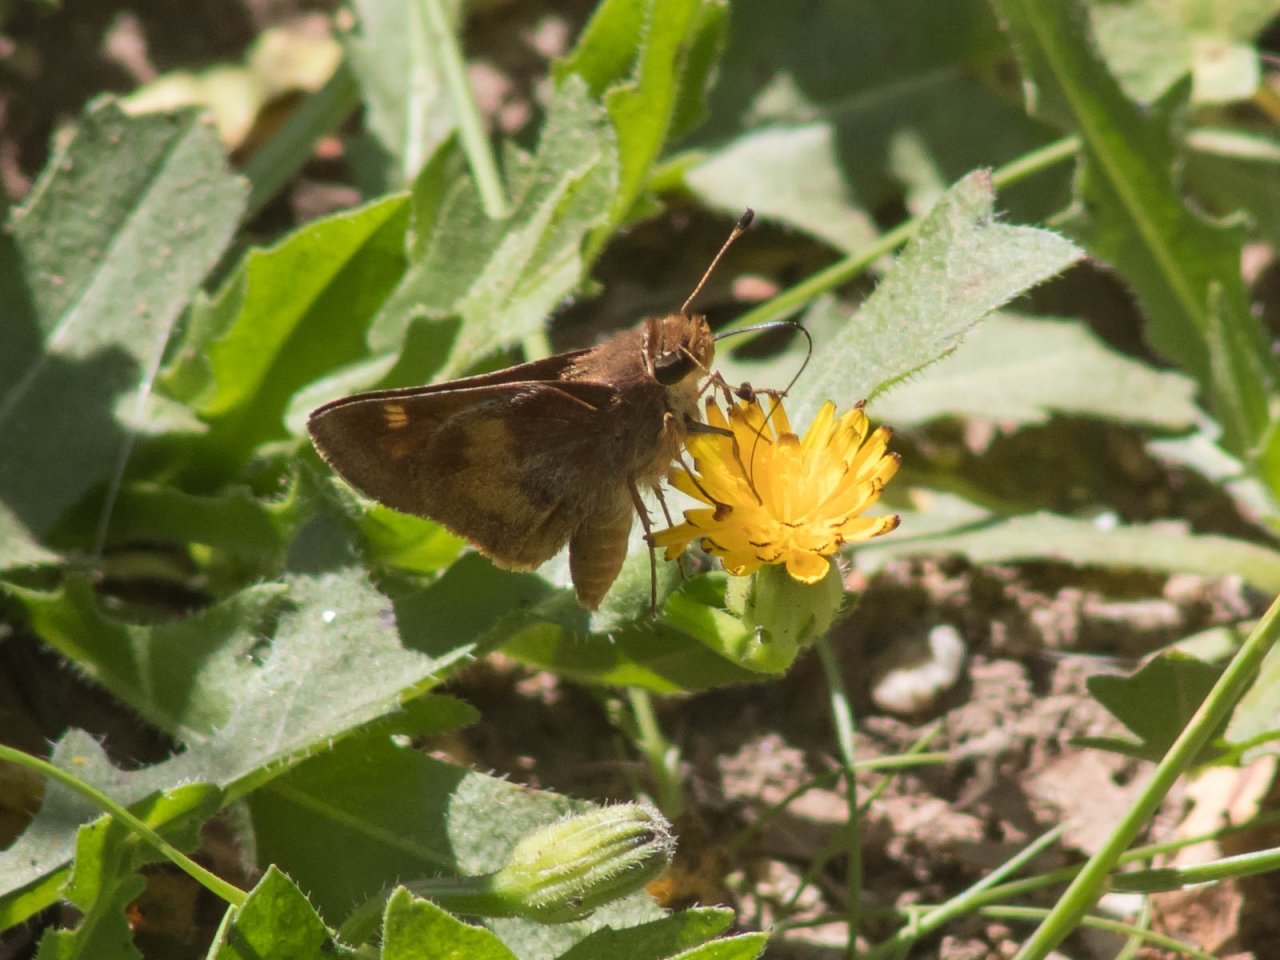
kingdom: Animalia
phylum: Arthropoda
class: Insecta
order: Lepidoptera
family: Hesperiidae
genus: Lon
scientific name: Lon melane
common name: Umber Skipper
